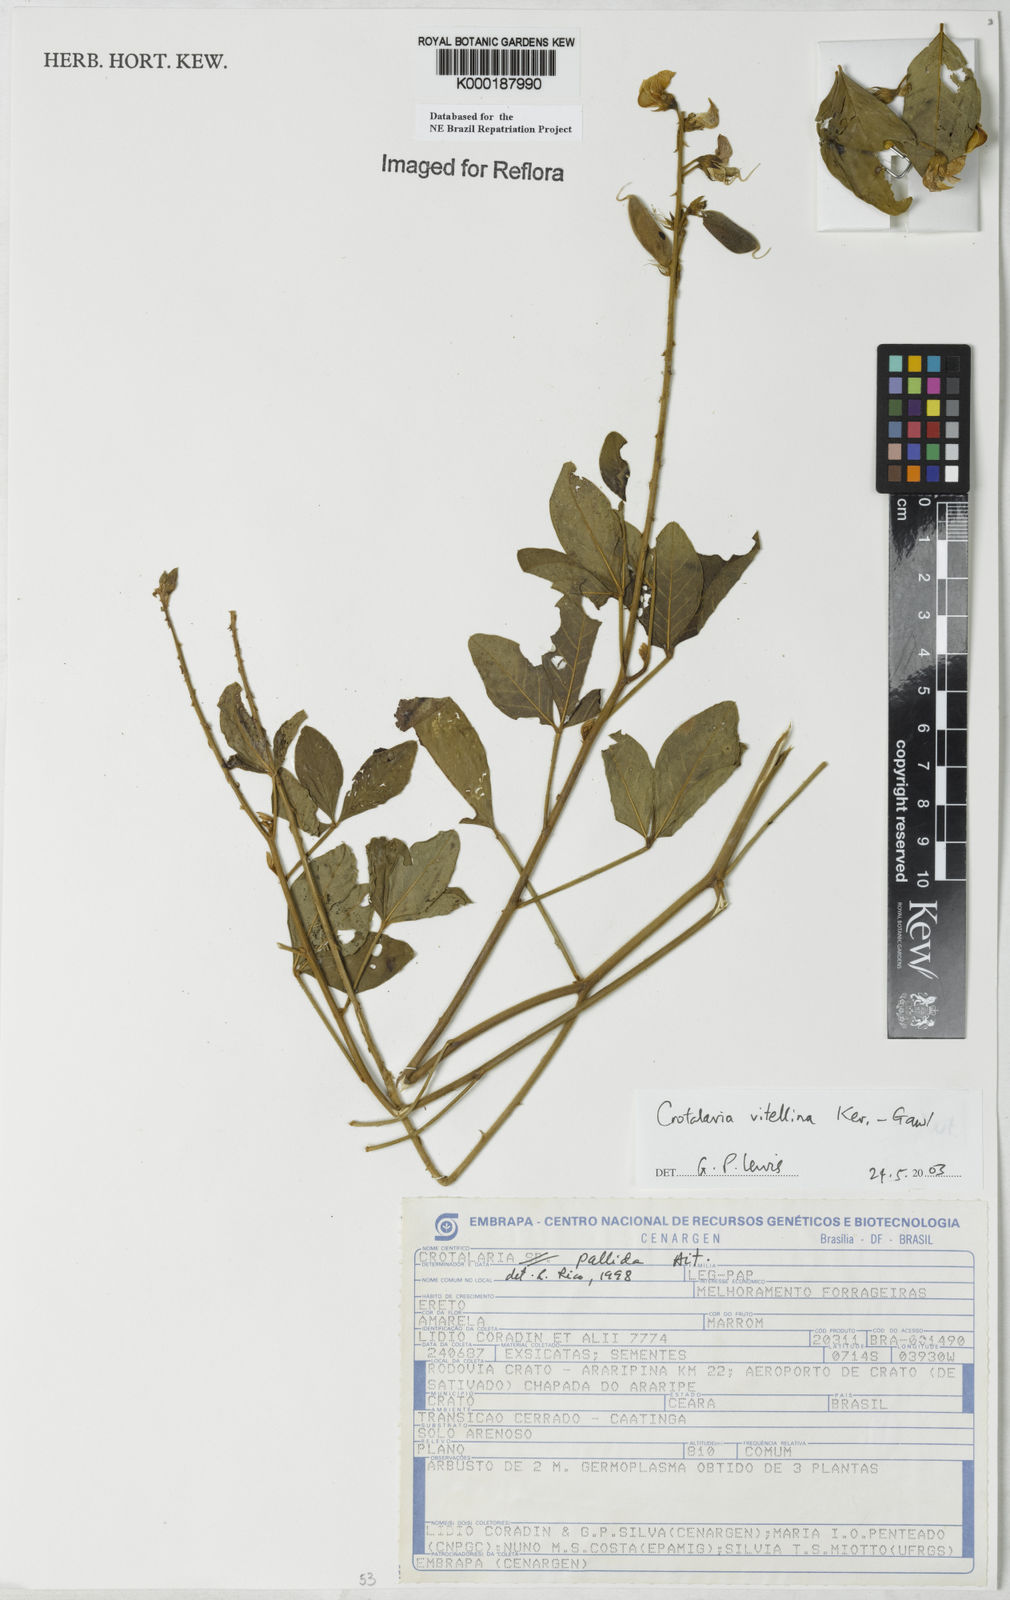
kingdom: Plantae
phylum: Tracheophyta
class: Magnoliopsida
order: Fabales
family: Fabaceae
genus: Crotalaria
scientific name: Crotalaria vitellina
